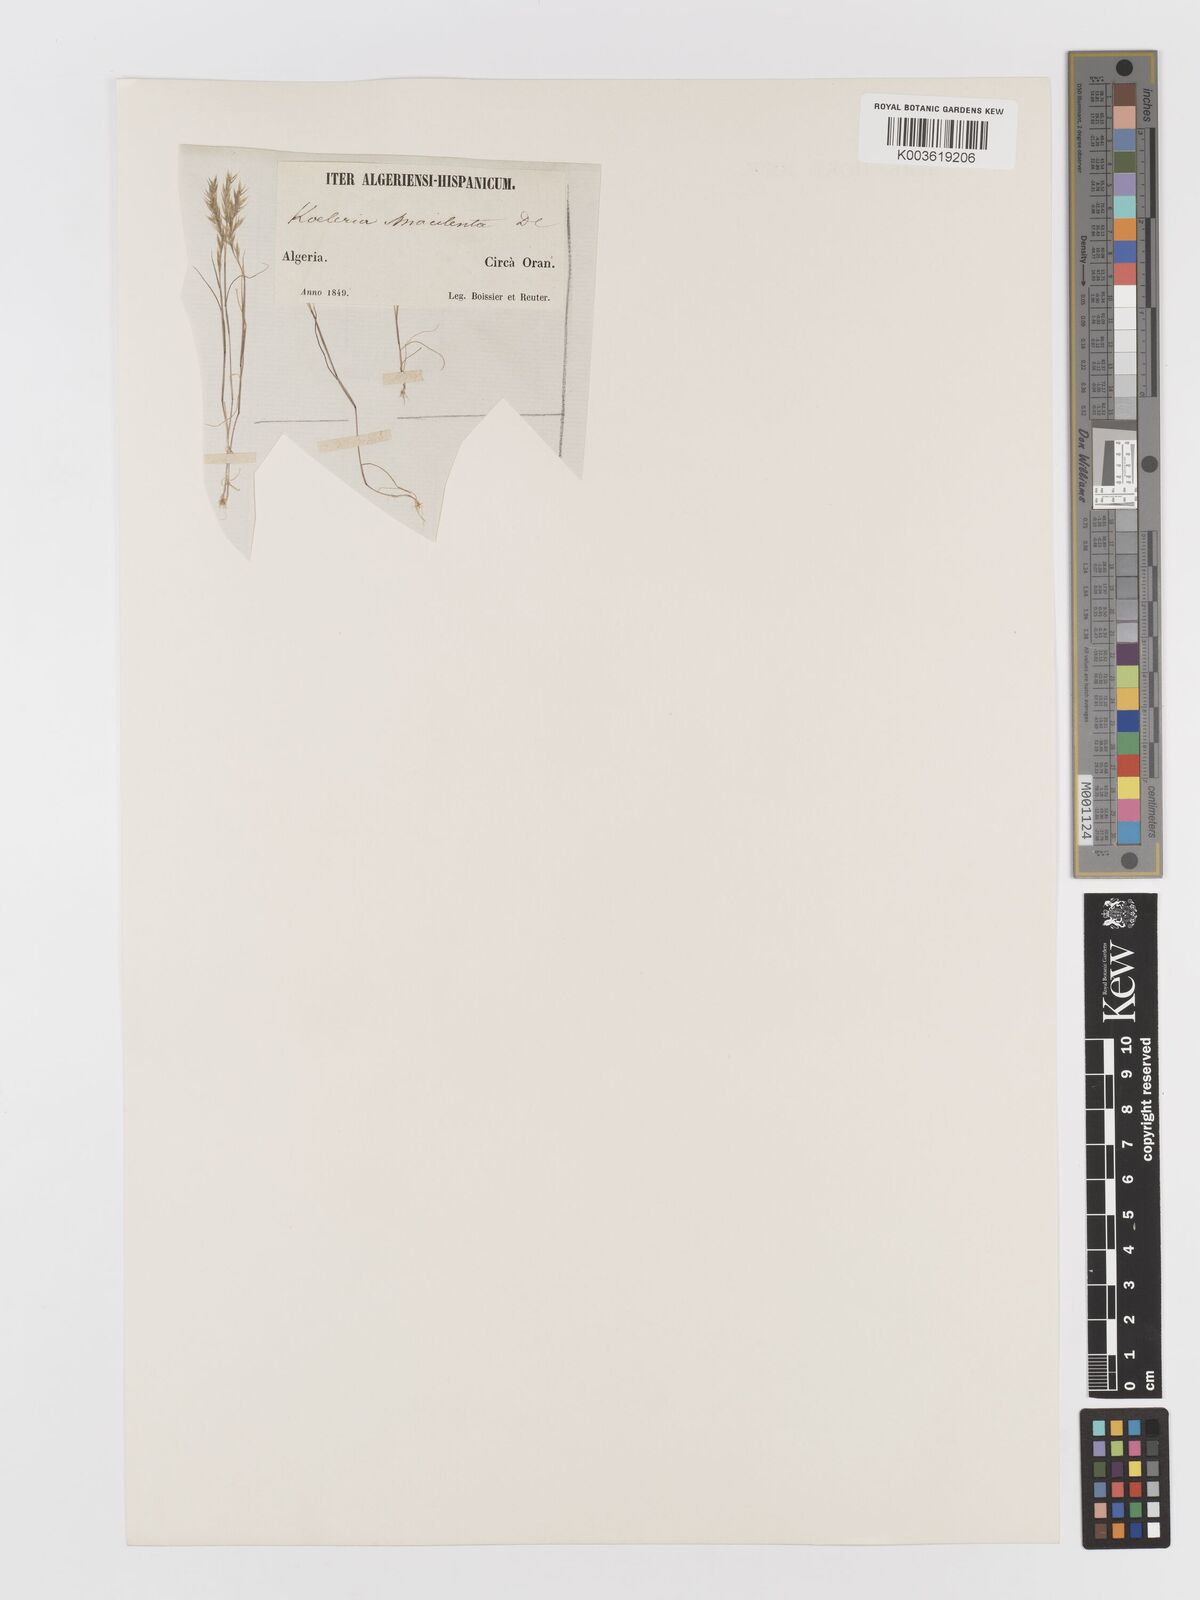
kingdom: Plantae
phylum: Tracheophyta
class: Liliopsida
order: Poales
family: Poaceae
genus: Avellinia
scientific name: Avellinia festucoides
